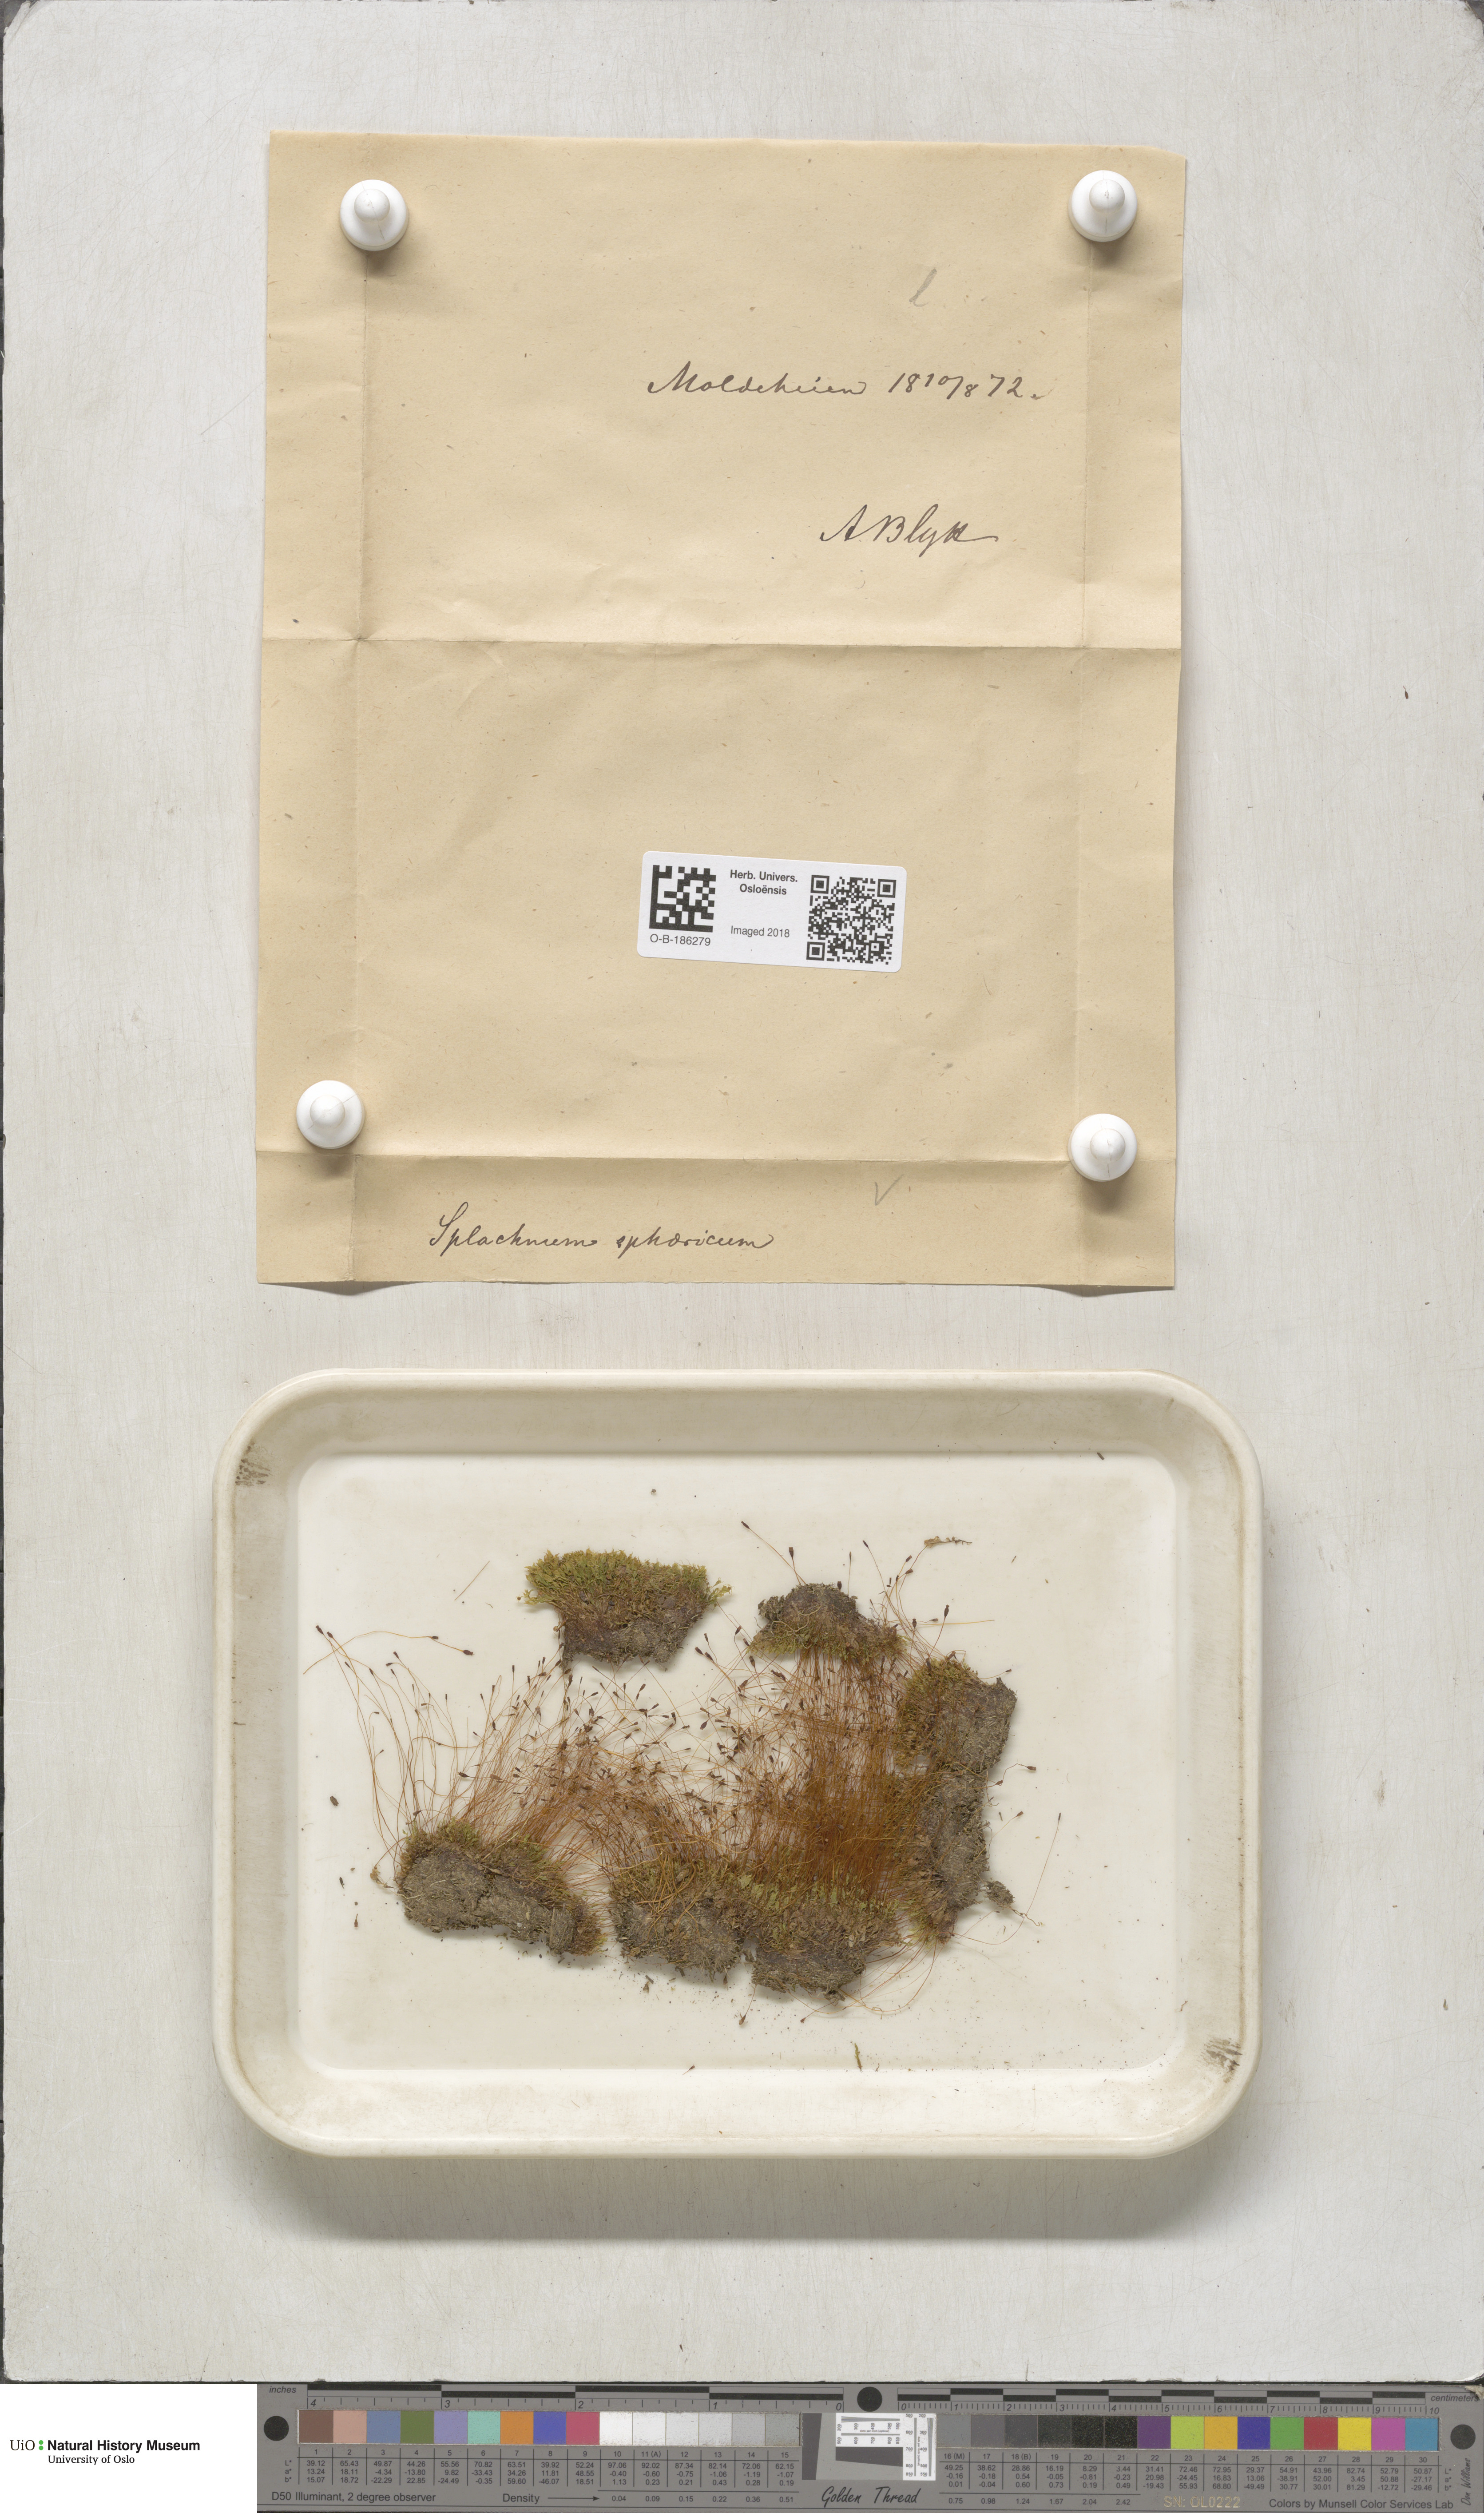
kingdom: Plantae
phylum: Bryophyta
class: Bryopsida
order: Splachnales
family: Splachnaceae
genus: Splachnum
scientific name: Splachnum sphaericum
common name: Round-fruited dung moss
